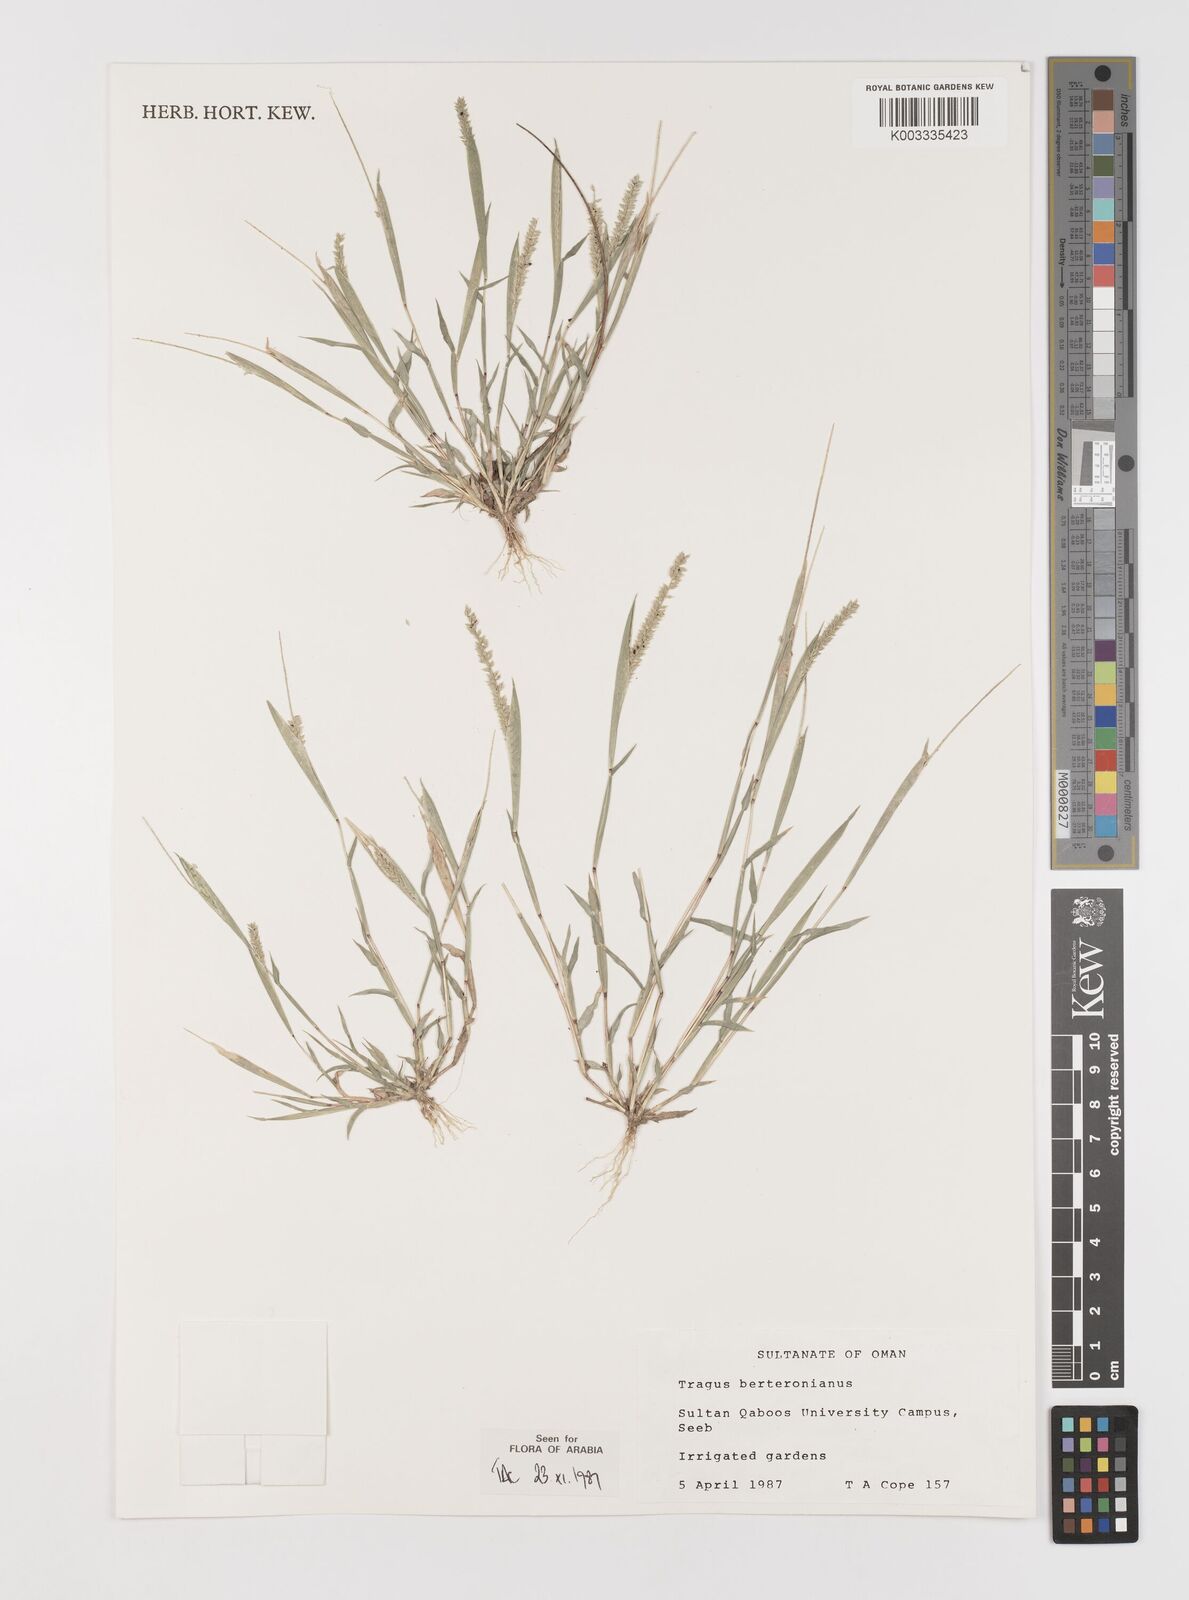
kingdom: Plantae
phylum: Tracheophyta
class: Liliopsida
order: Poales
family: Poaceae
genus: Tragus
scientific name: Tragus berteronianus
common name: African bur-grass
